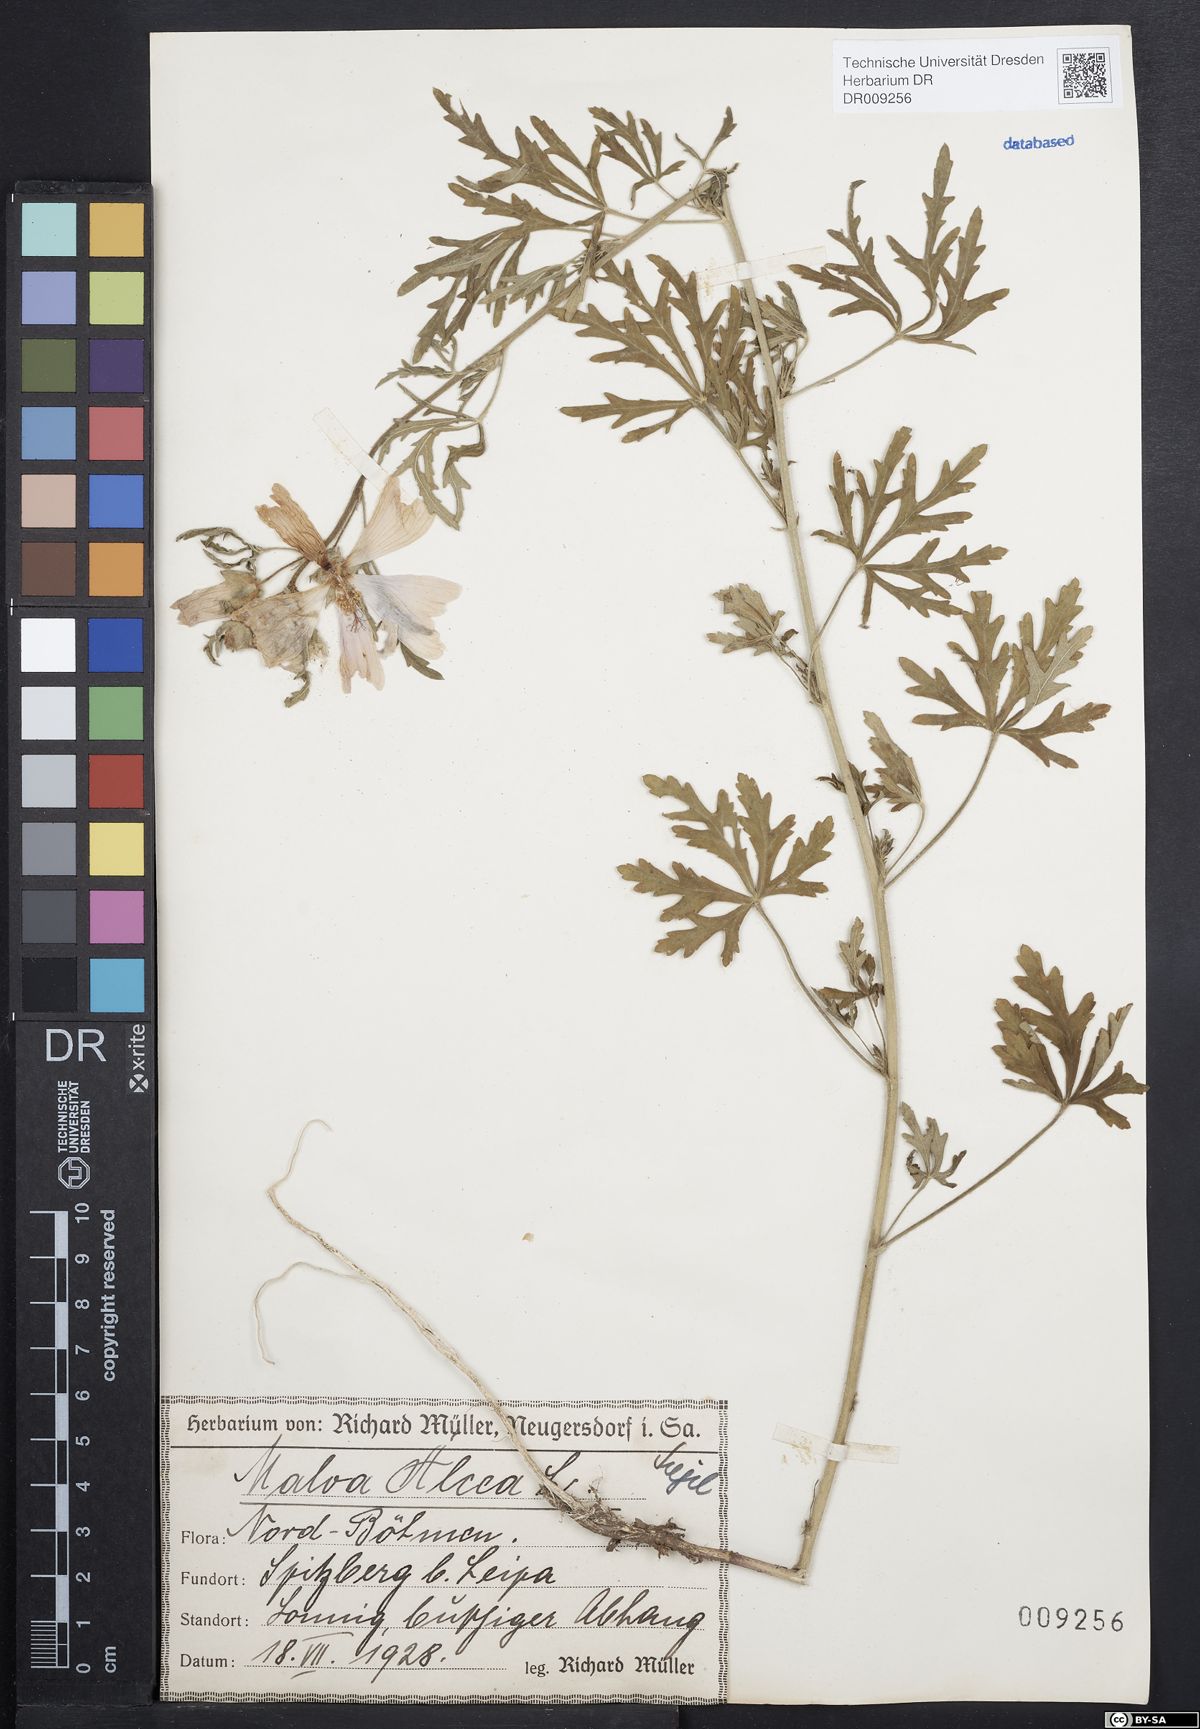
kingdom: Plantae
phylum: Tracheophyta
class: Magnoliopsida
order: Malvales
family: Malvaceae
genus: Malva
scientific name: Malva alcea
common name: Greater musk-mallow
